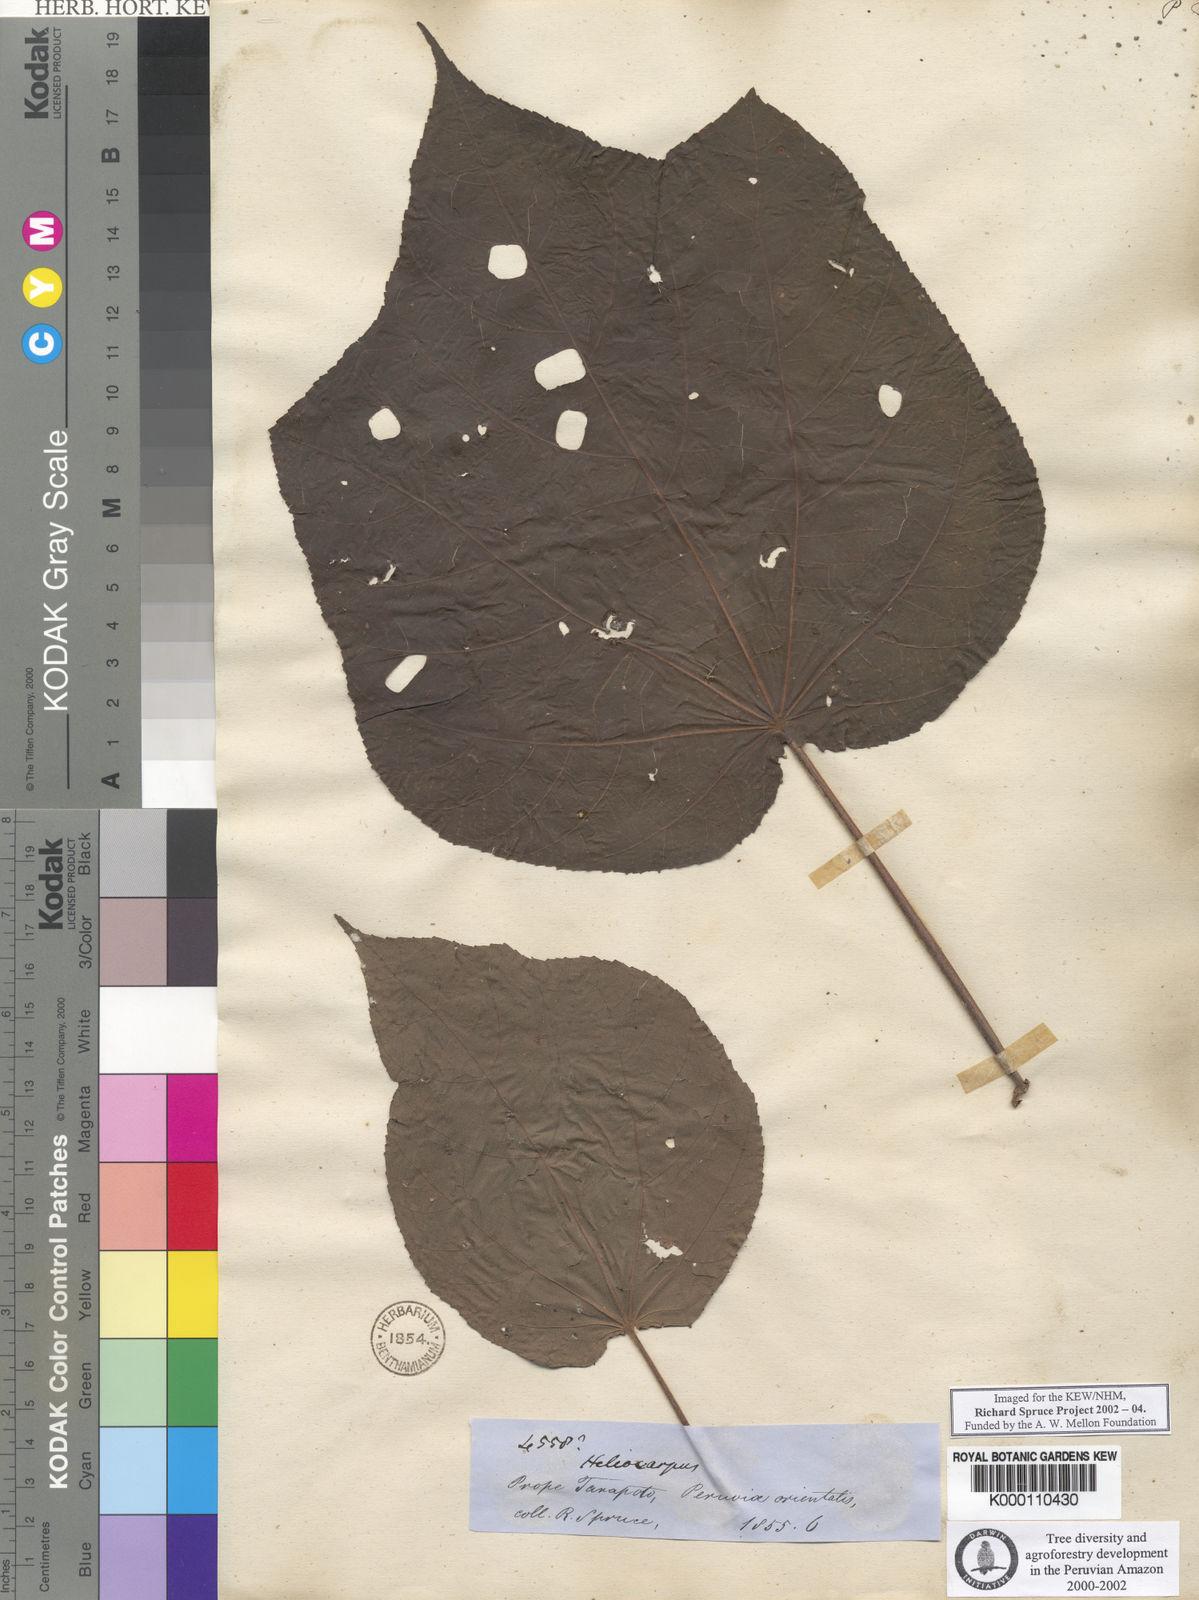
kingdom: Plantae
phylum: Tracheophyta
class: Magnoliopsida
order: Malvales
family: Malvaceae
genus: Heliocarpus
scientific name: Heliocarpus americanus
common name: White moho
